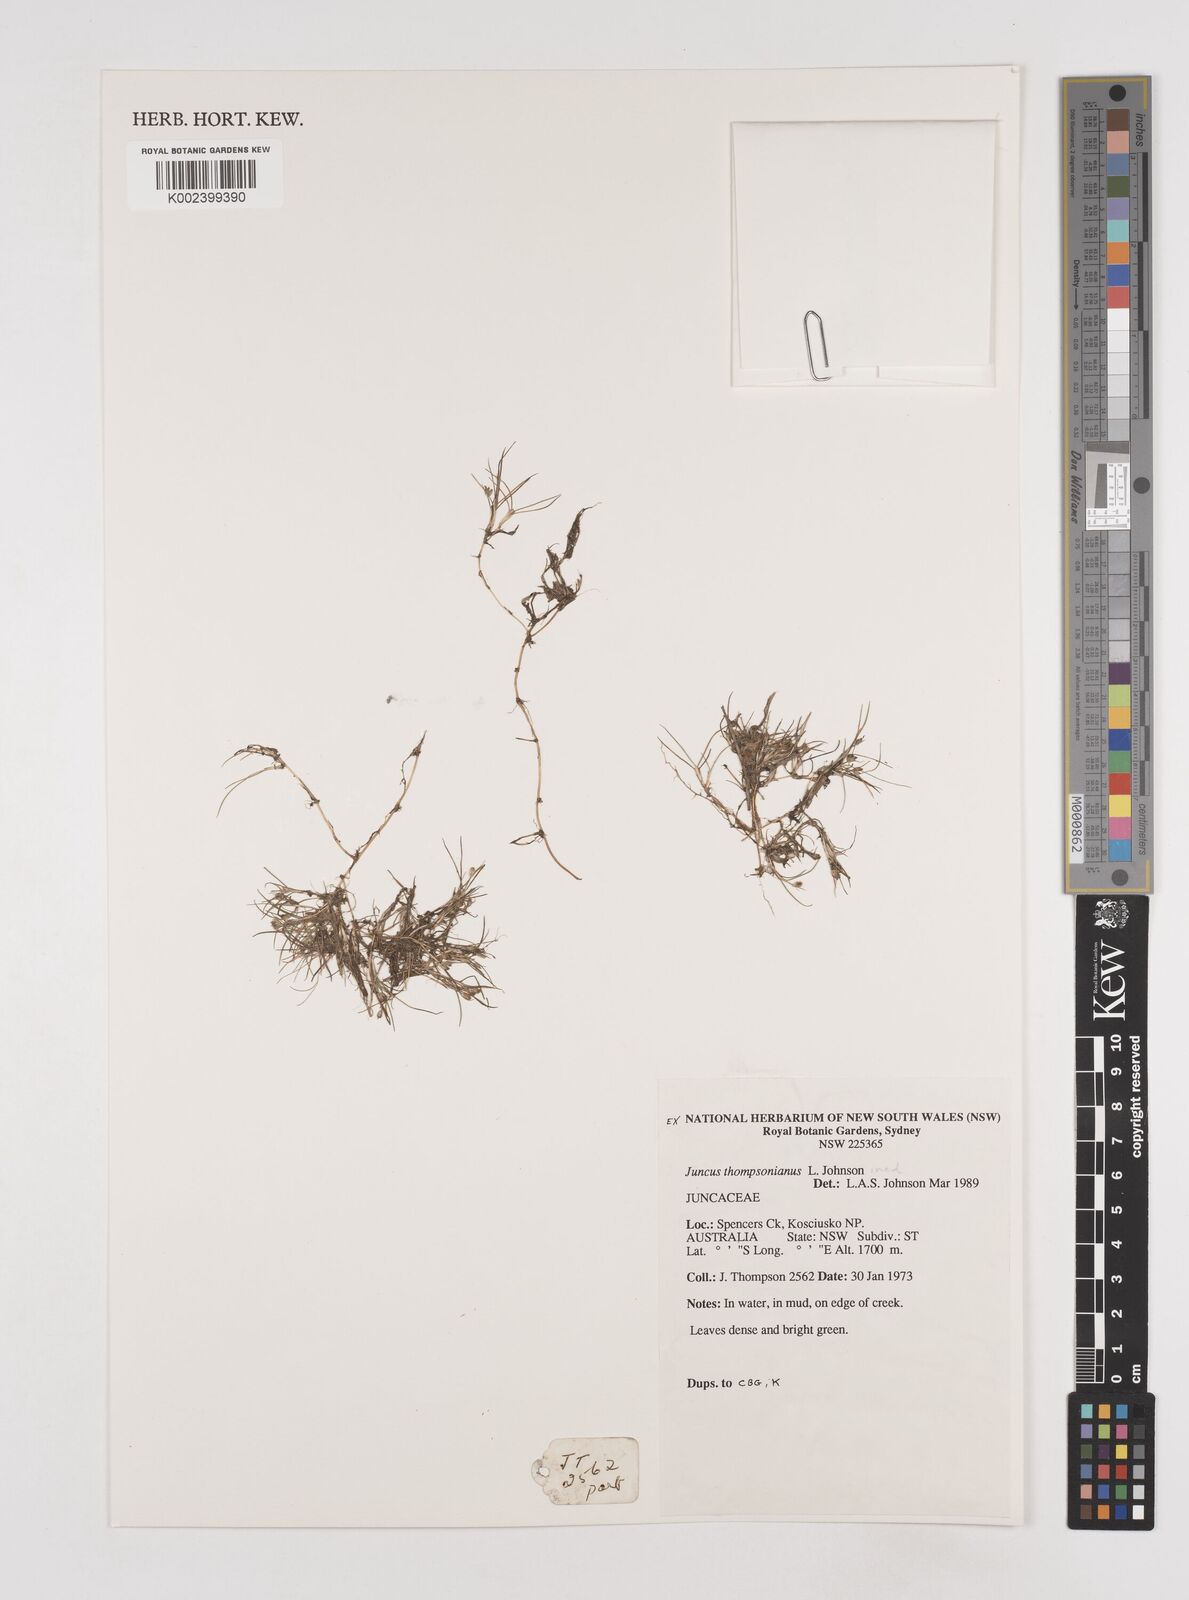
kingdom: Plantae
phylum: Tracheophyta
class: Liliopsida
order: Poales
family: Juncaceae
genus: Juncus
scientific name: Juncus thompsonianus
